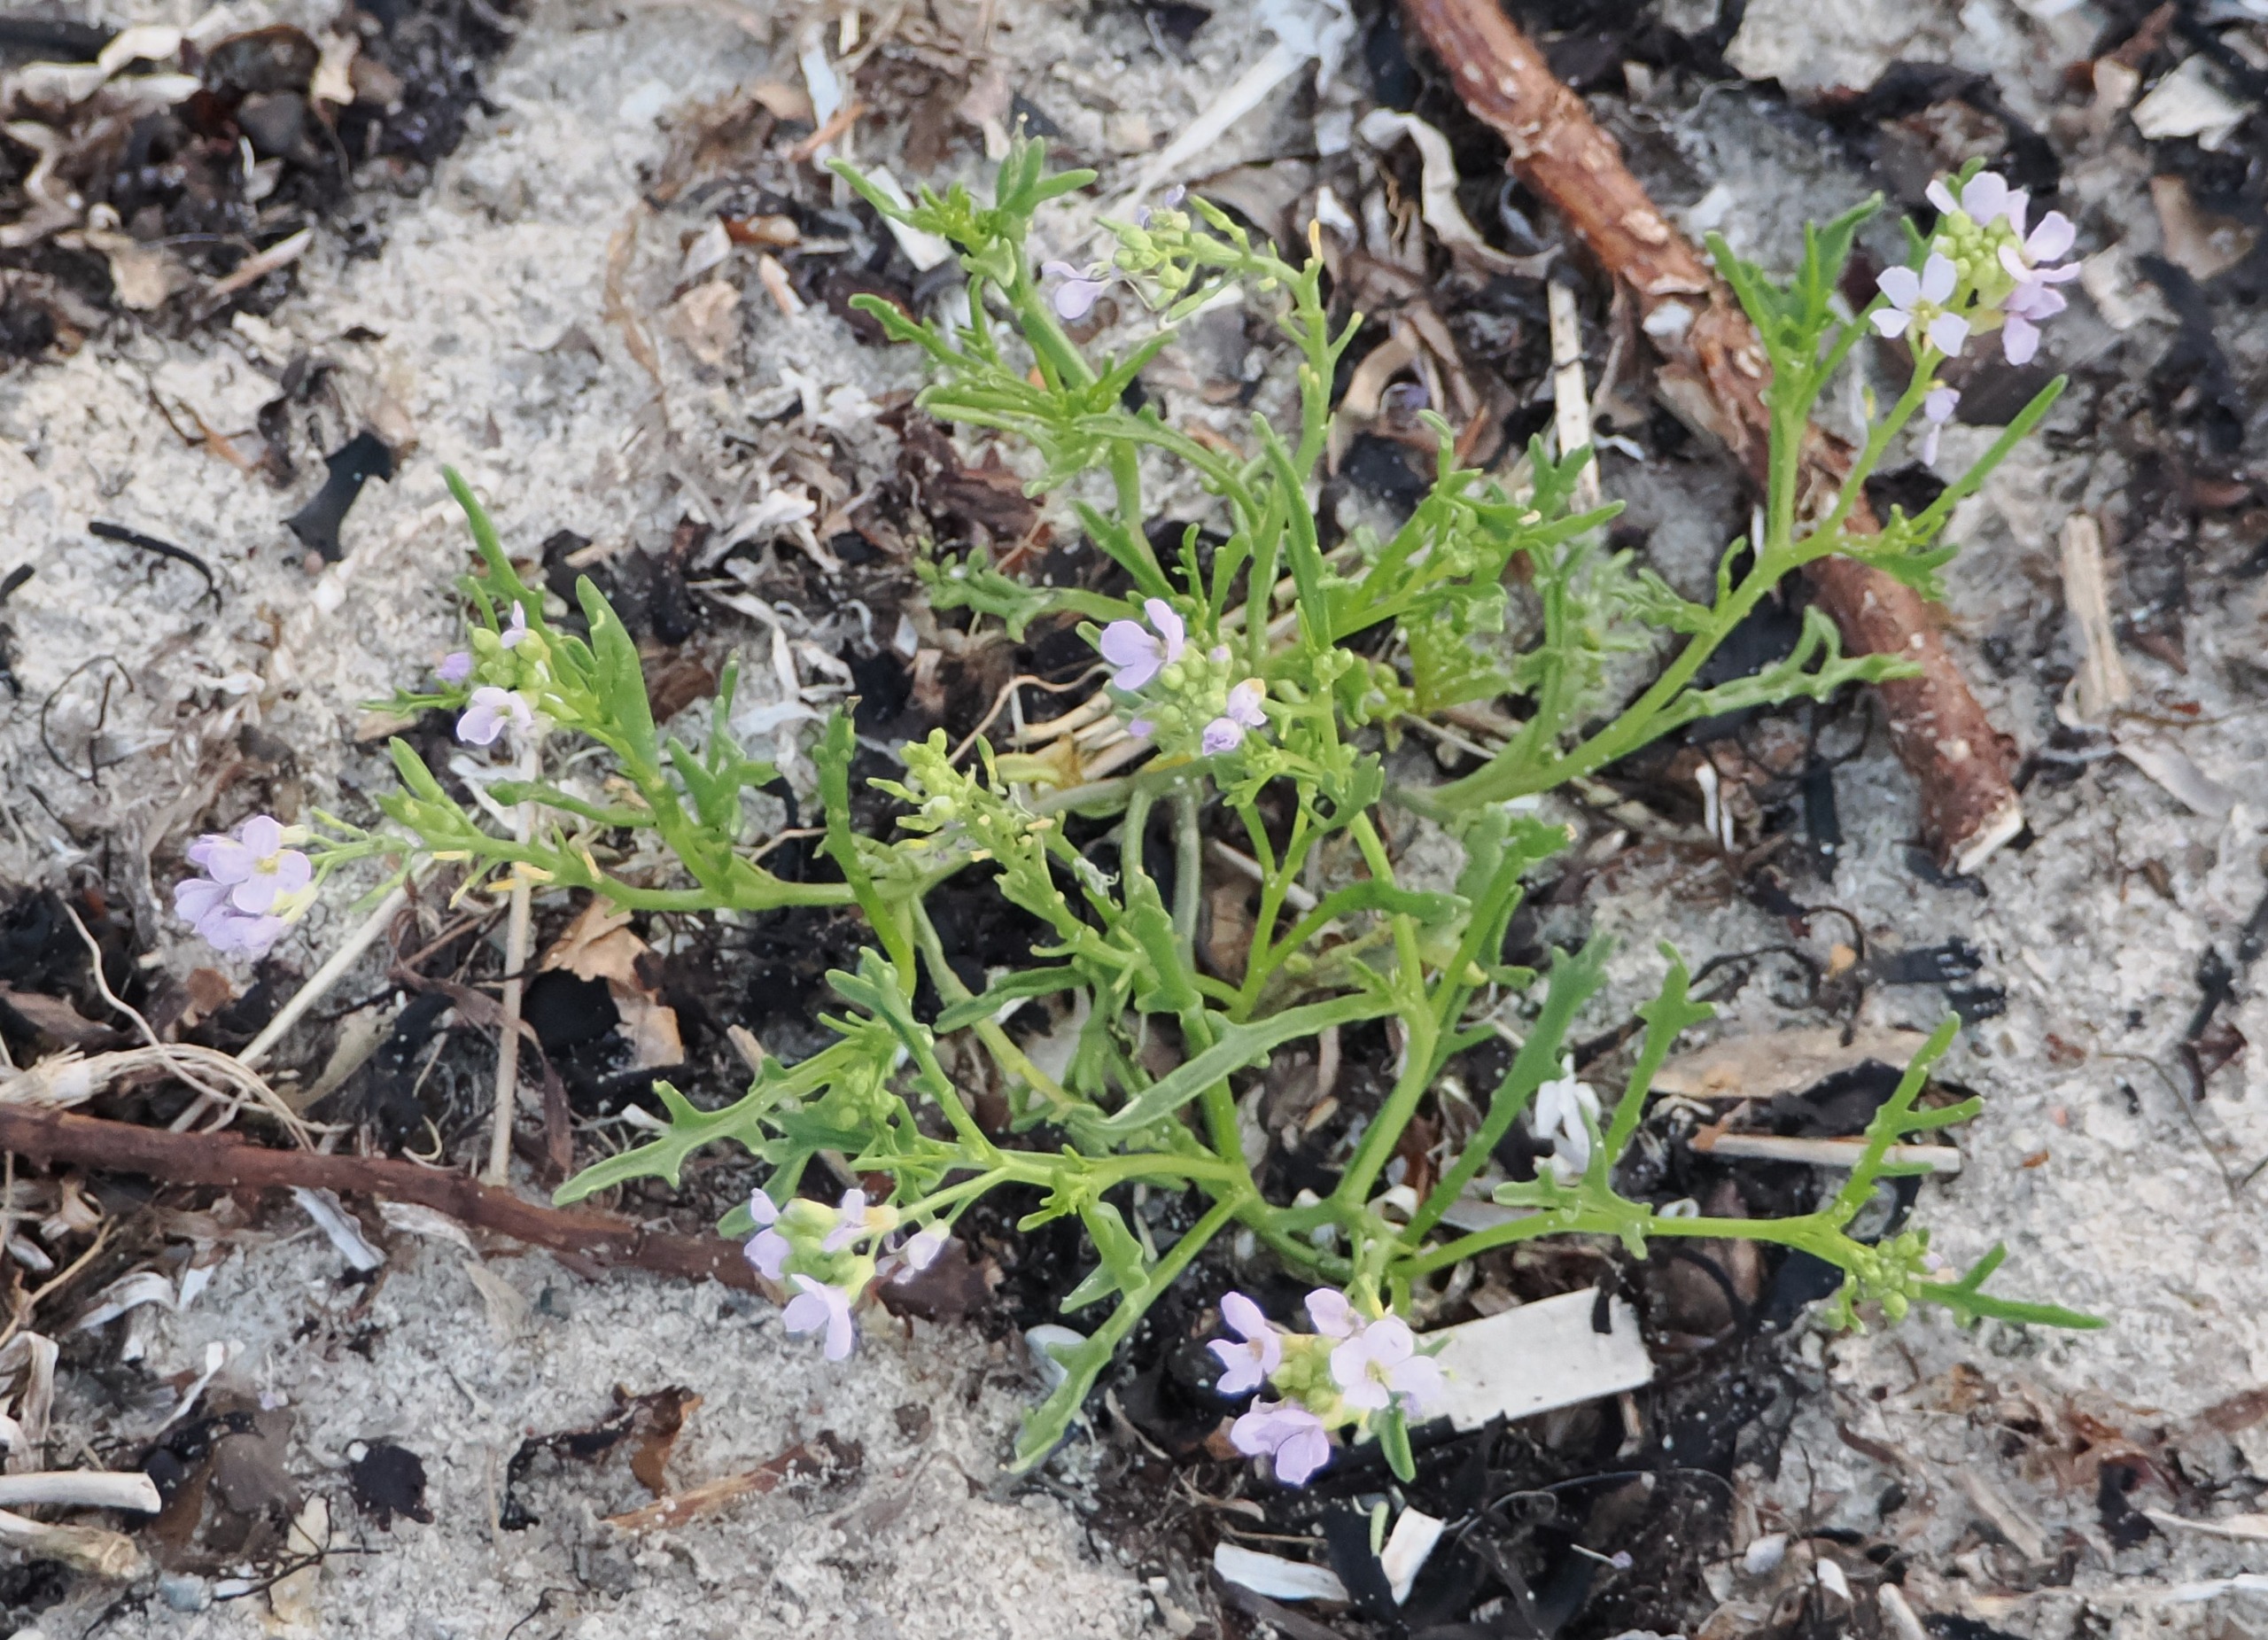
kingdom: Plantae
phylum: Tracheophyta
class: Magnoliopsida
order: Brassicales
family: Brassicaceae
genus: Cakile
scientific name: Cakile maritima
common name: Strandsennep
